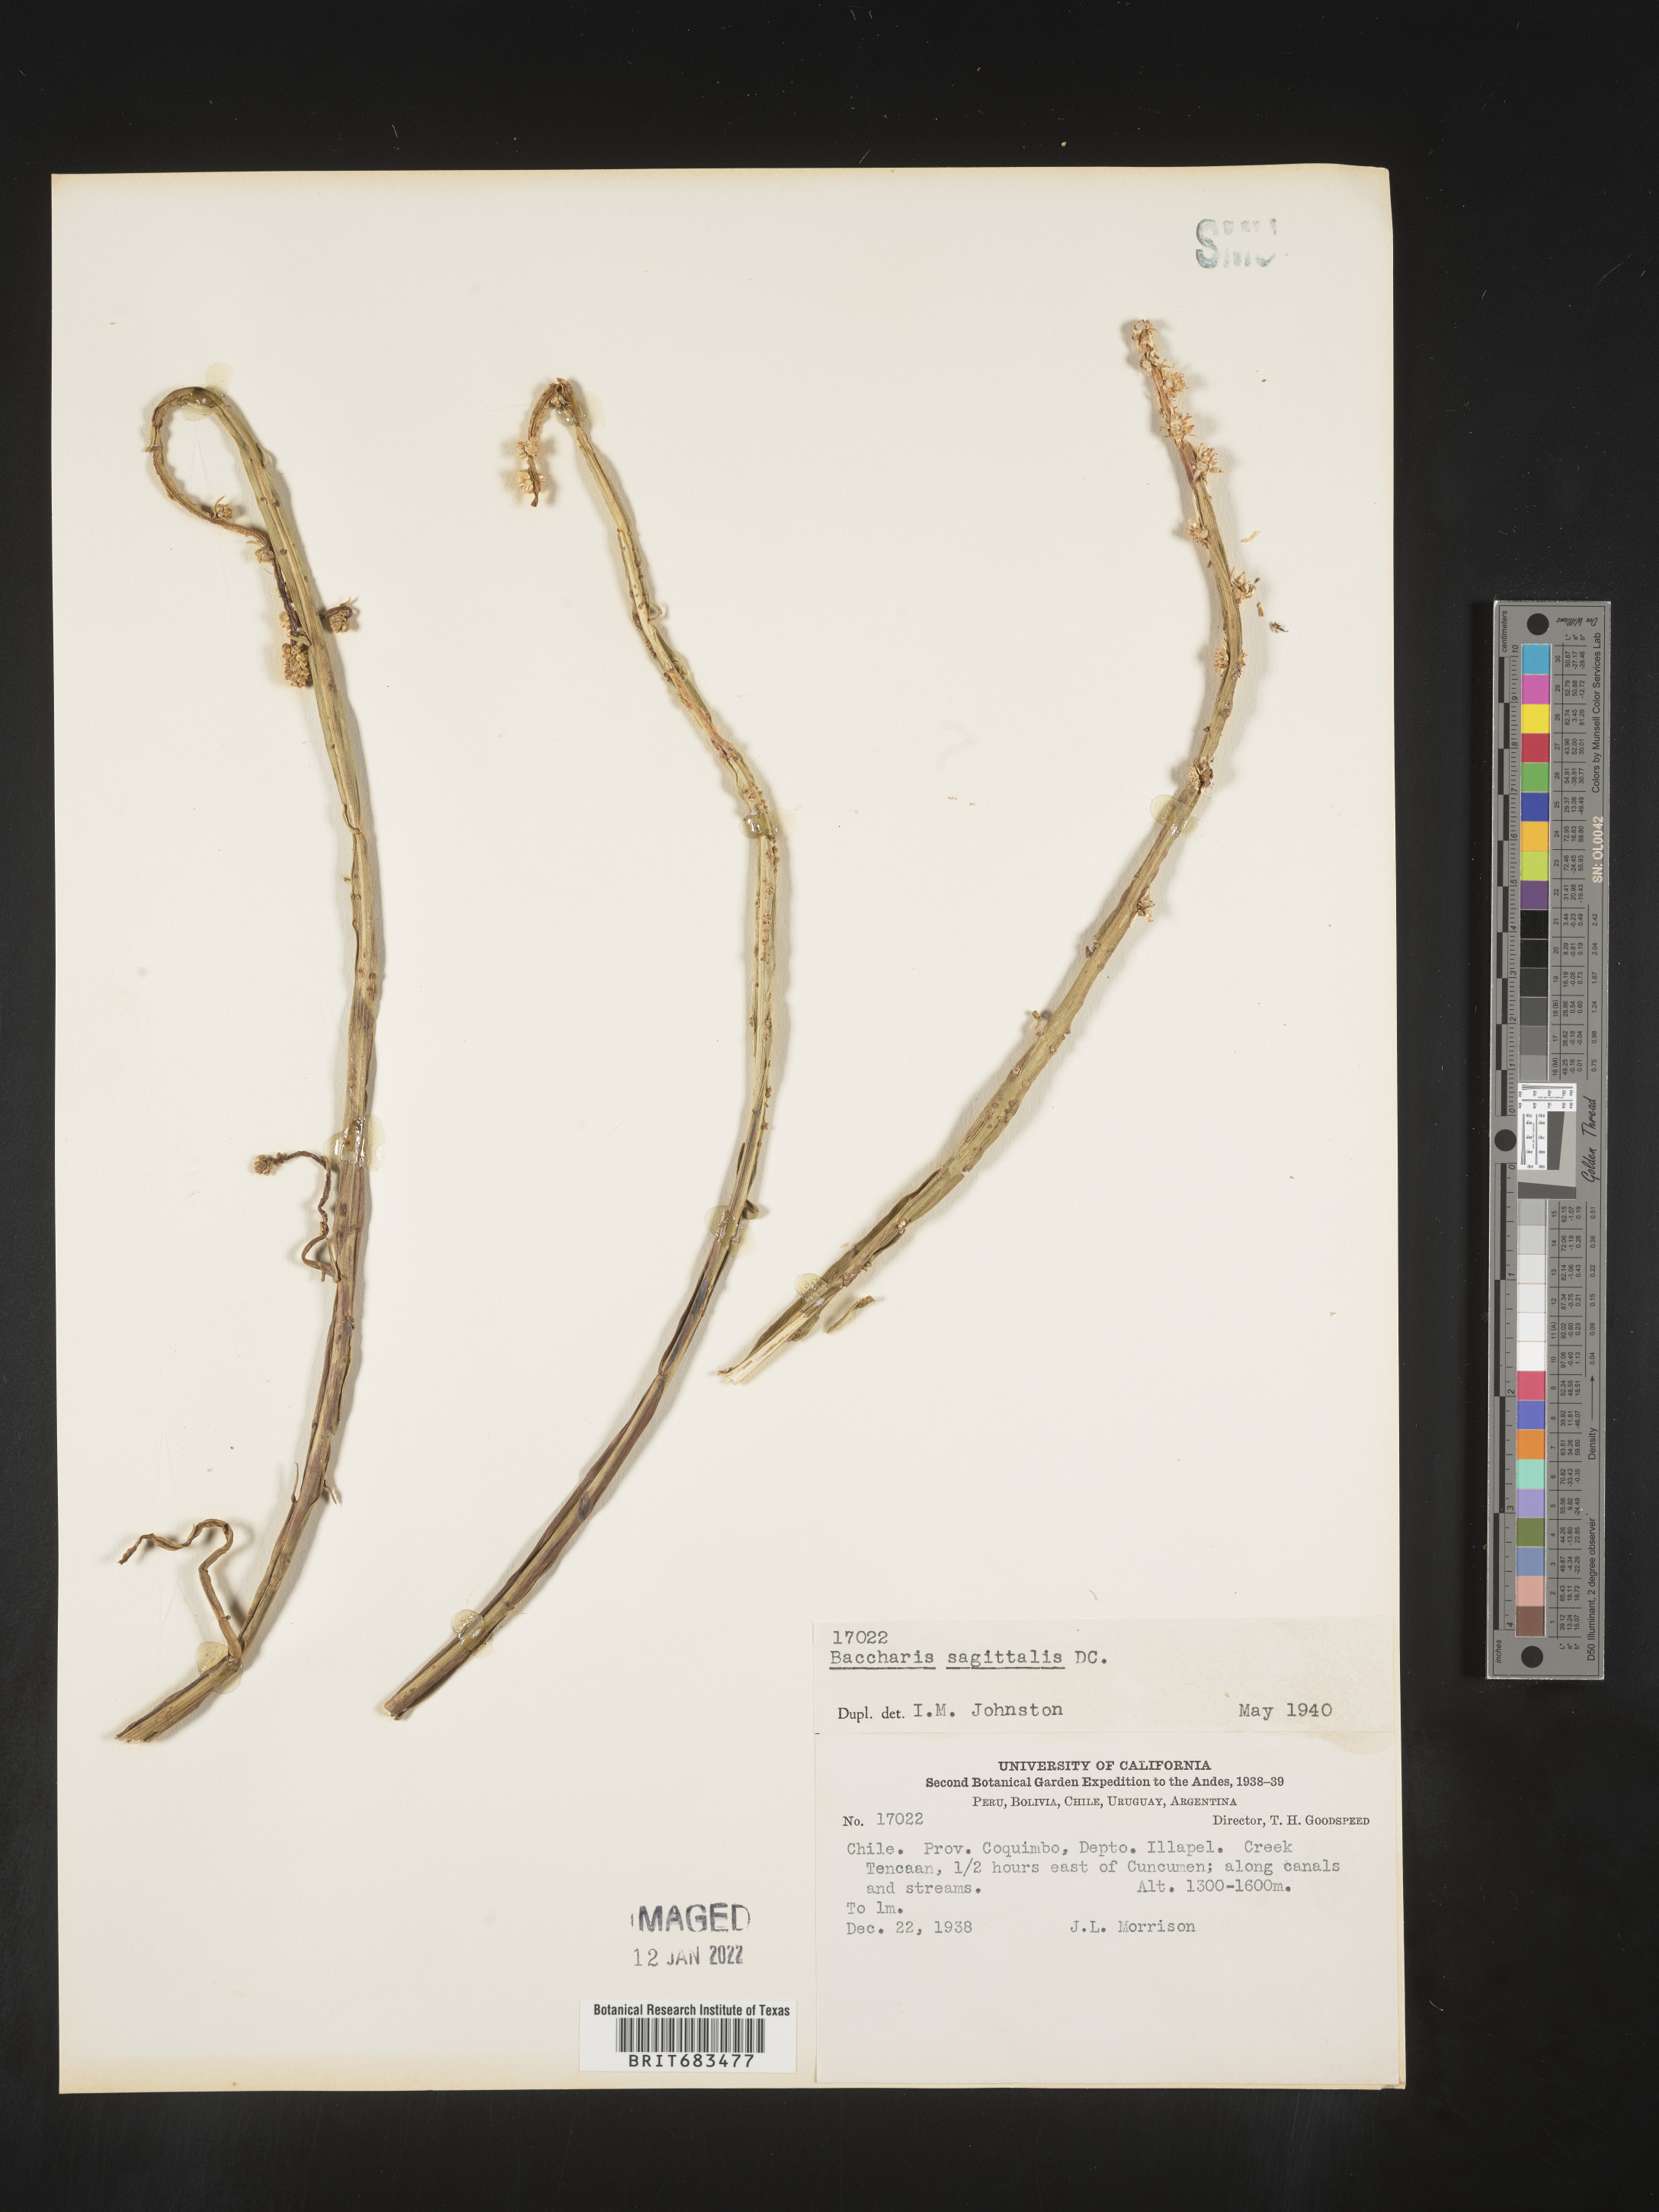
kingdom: Plantae
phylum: Tracheophyta
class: Magnoliopsida
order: Asterales
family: Asteraceae
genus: Baccharis
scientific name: Baccharis
